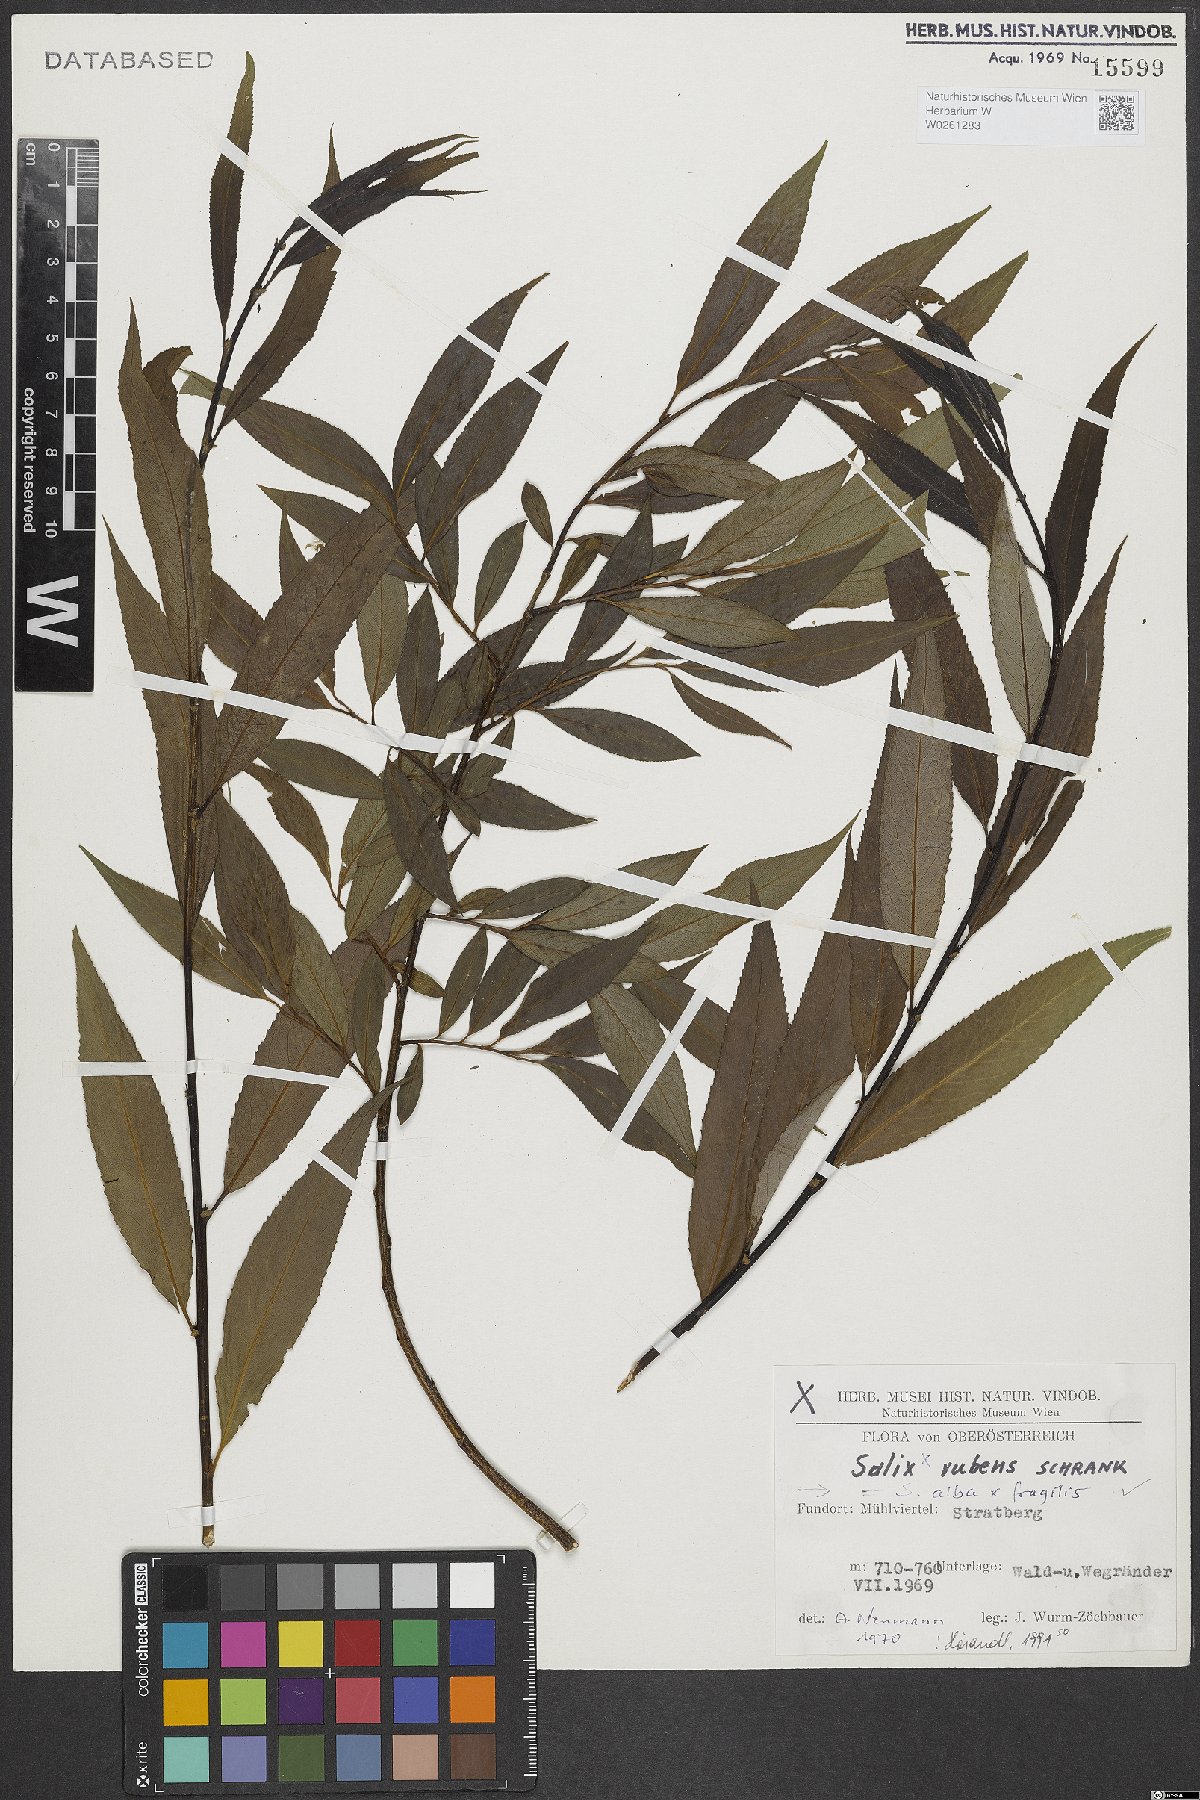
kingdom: Plantae
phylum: Tracheophyta
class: Magnoliopsida
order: Malpighiales
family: Salicaceae
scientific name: Salicaceae
